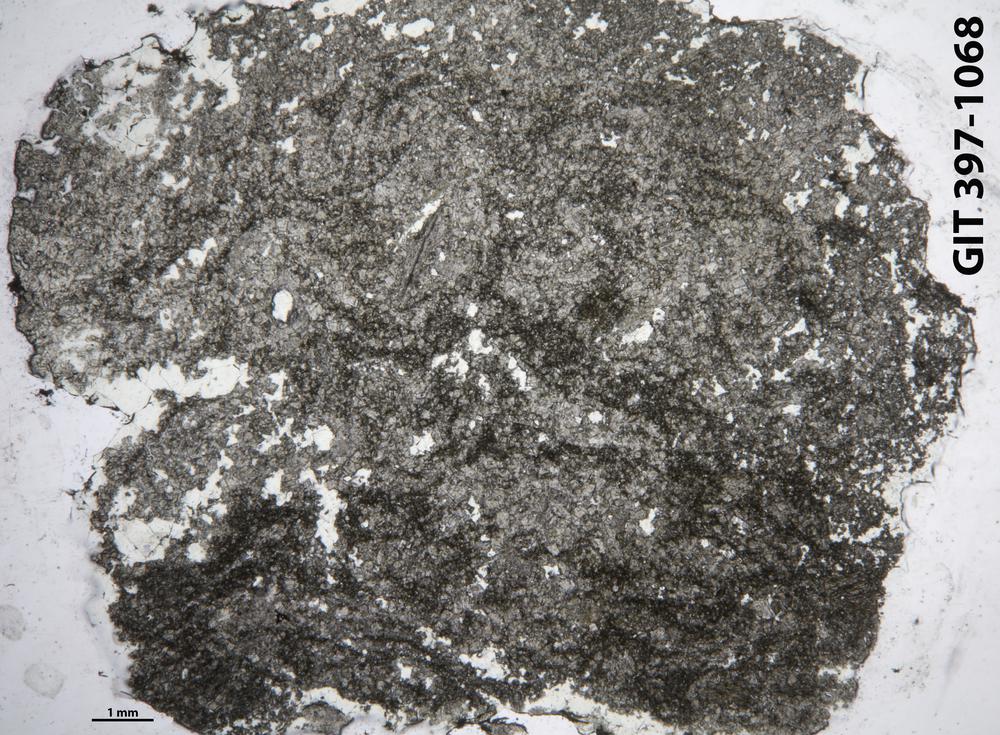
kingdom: Animalia
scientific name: Animalia
